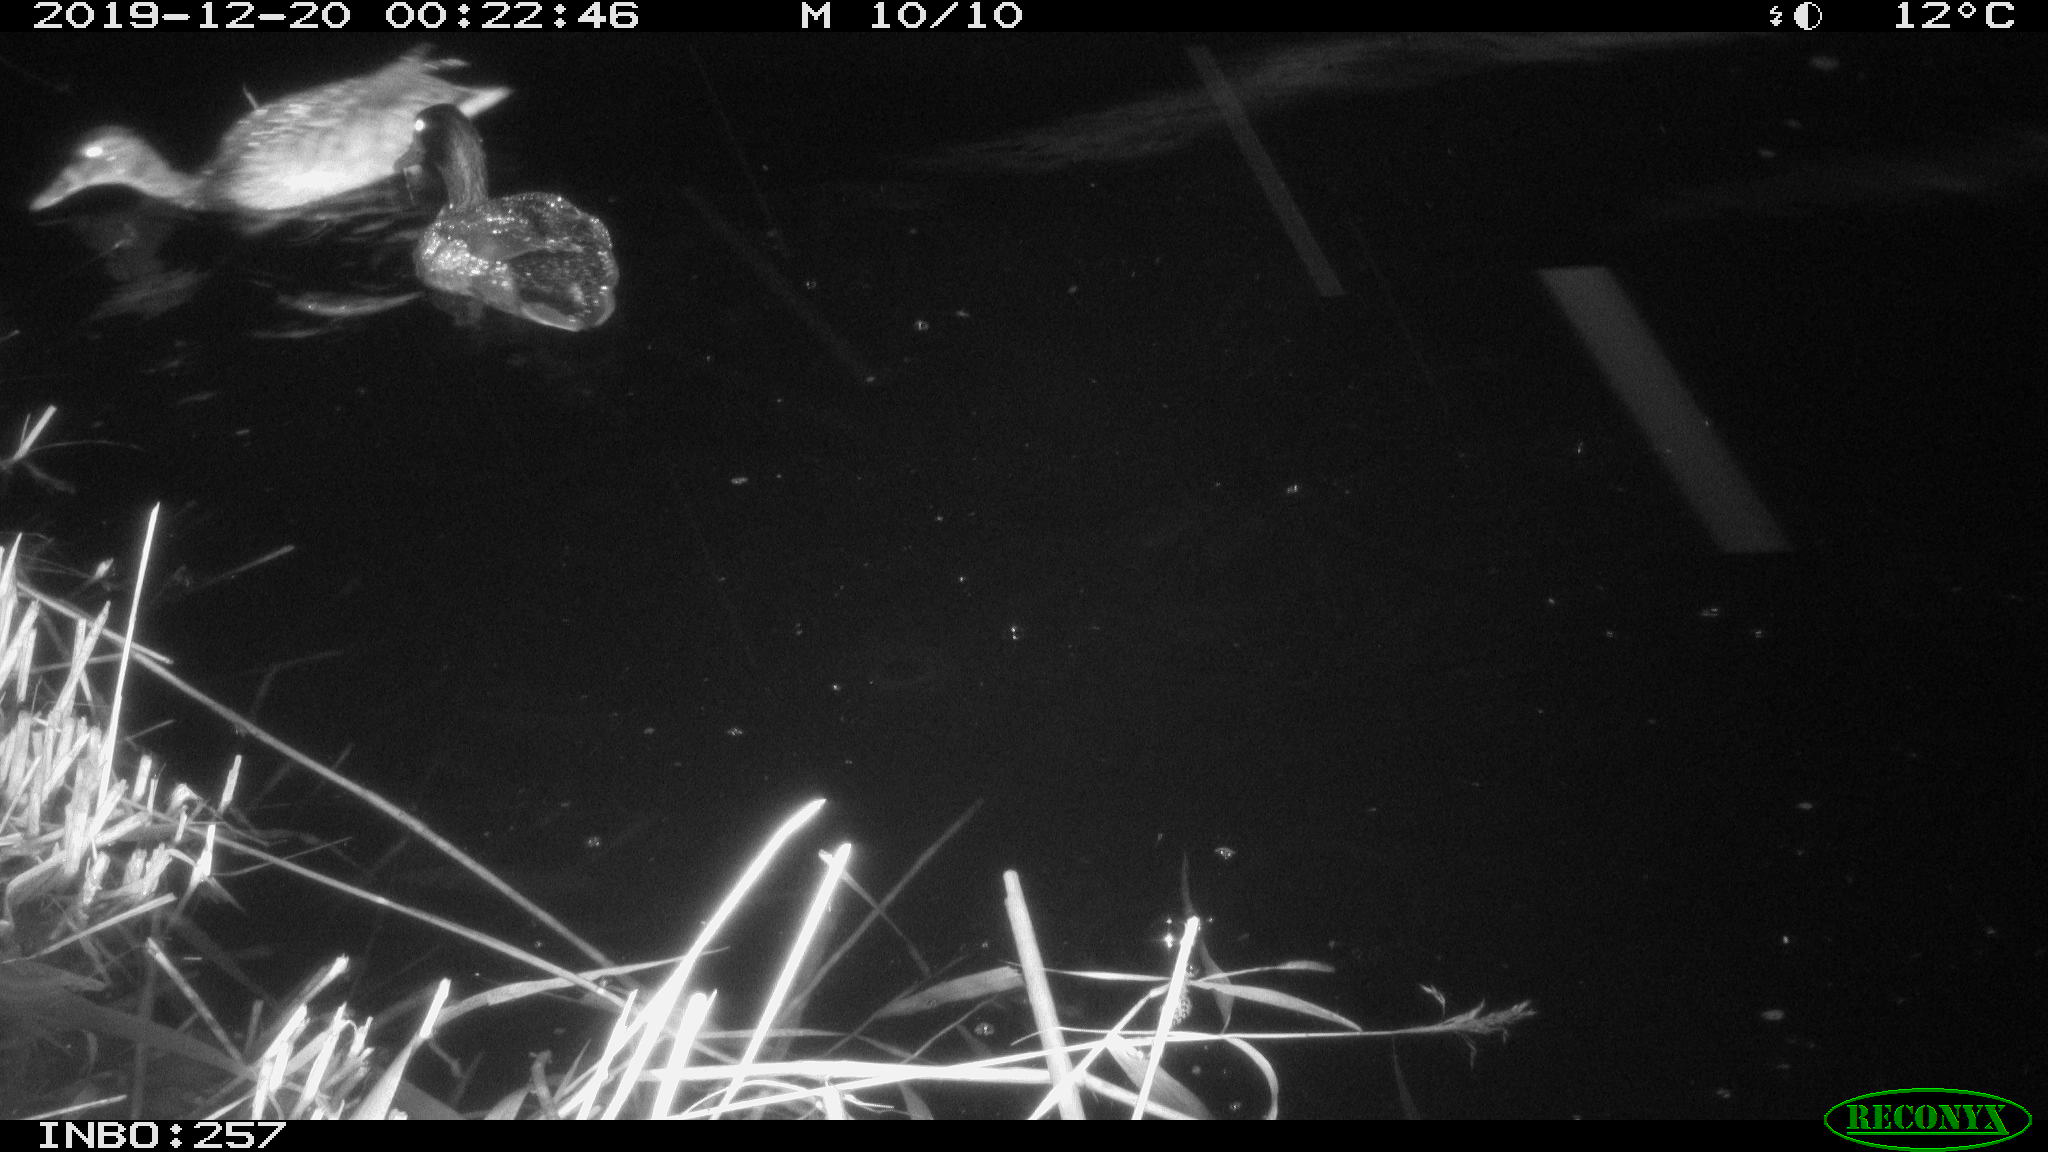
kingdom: Animalia
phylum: Chordata
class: Aves
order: Anseriformes
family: Anatidae
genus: Anas
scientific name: Anas platyrhynchos
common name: Mallard
